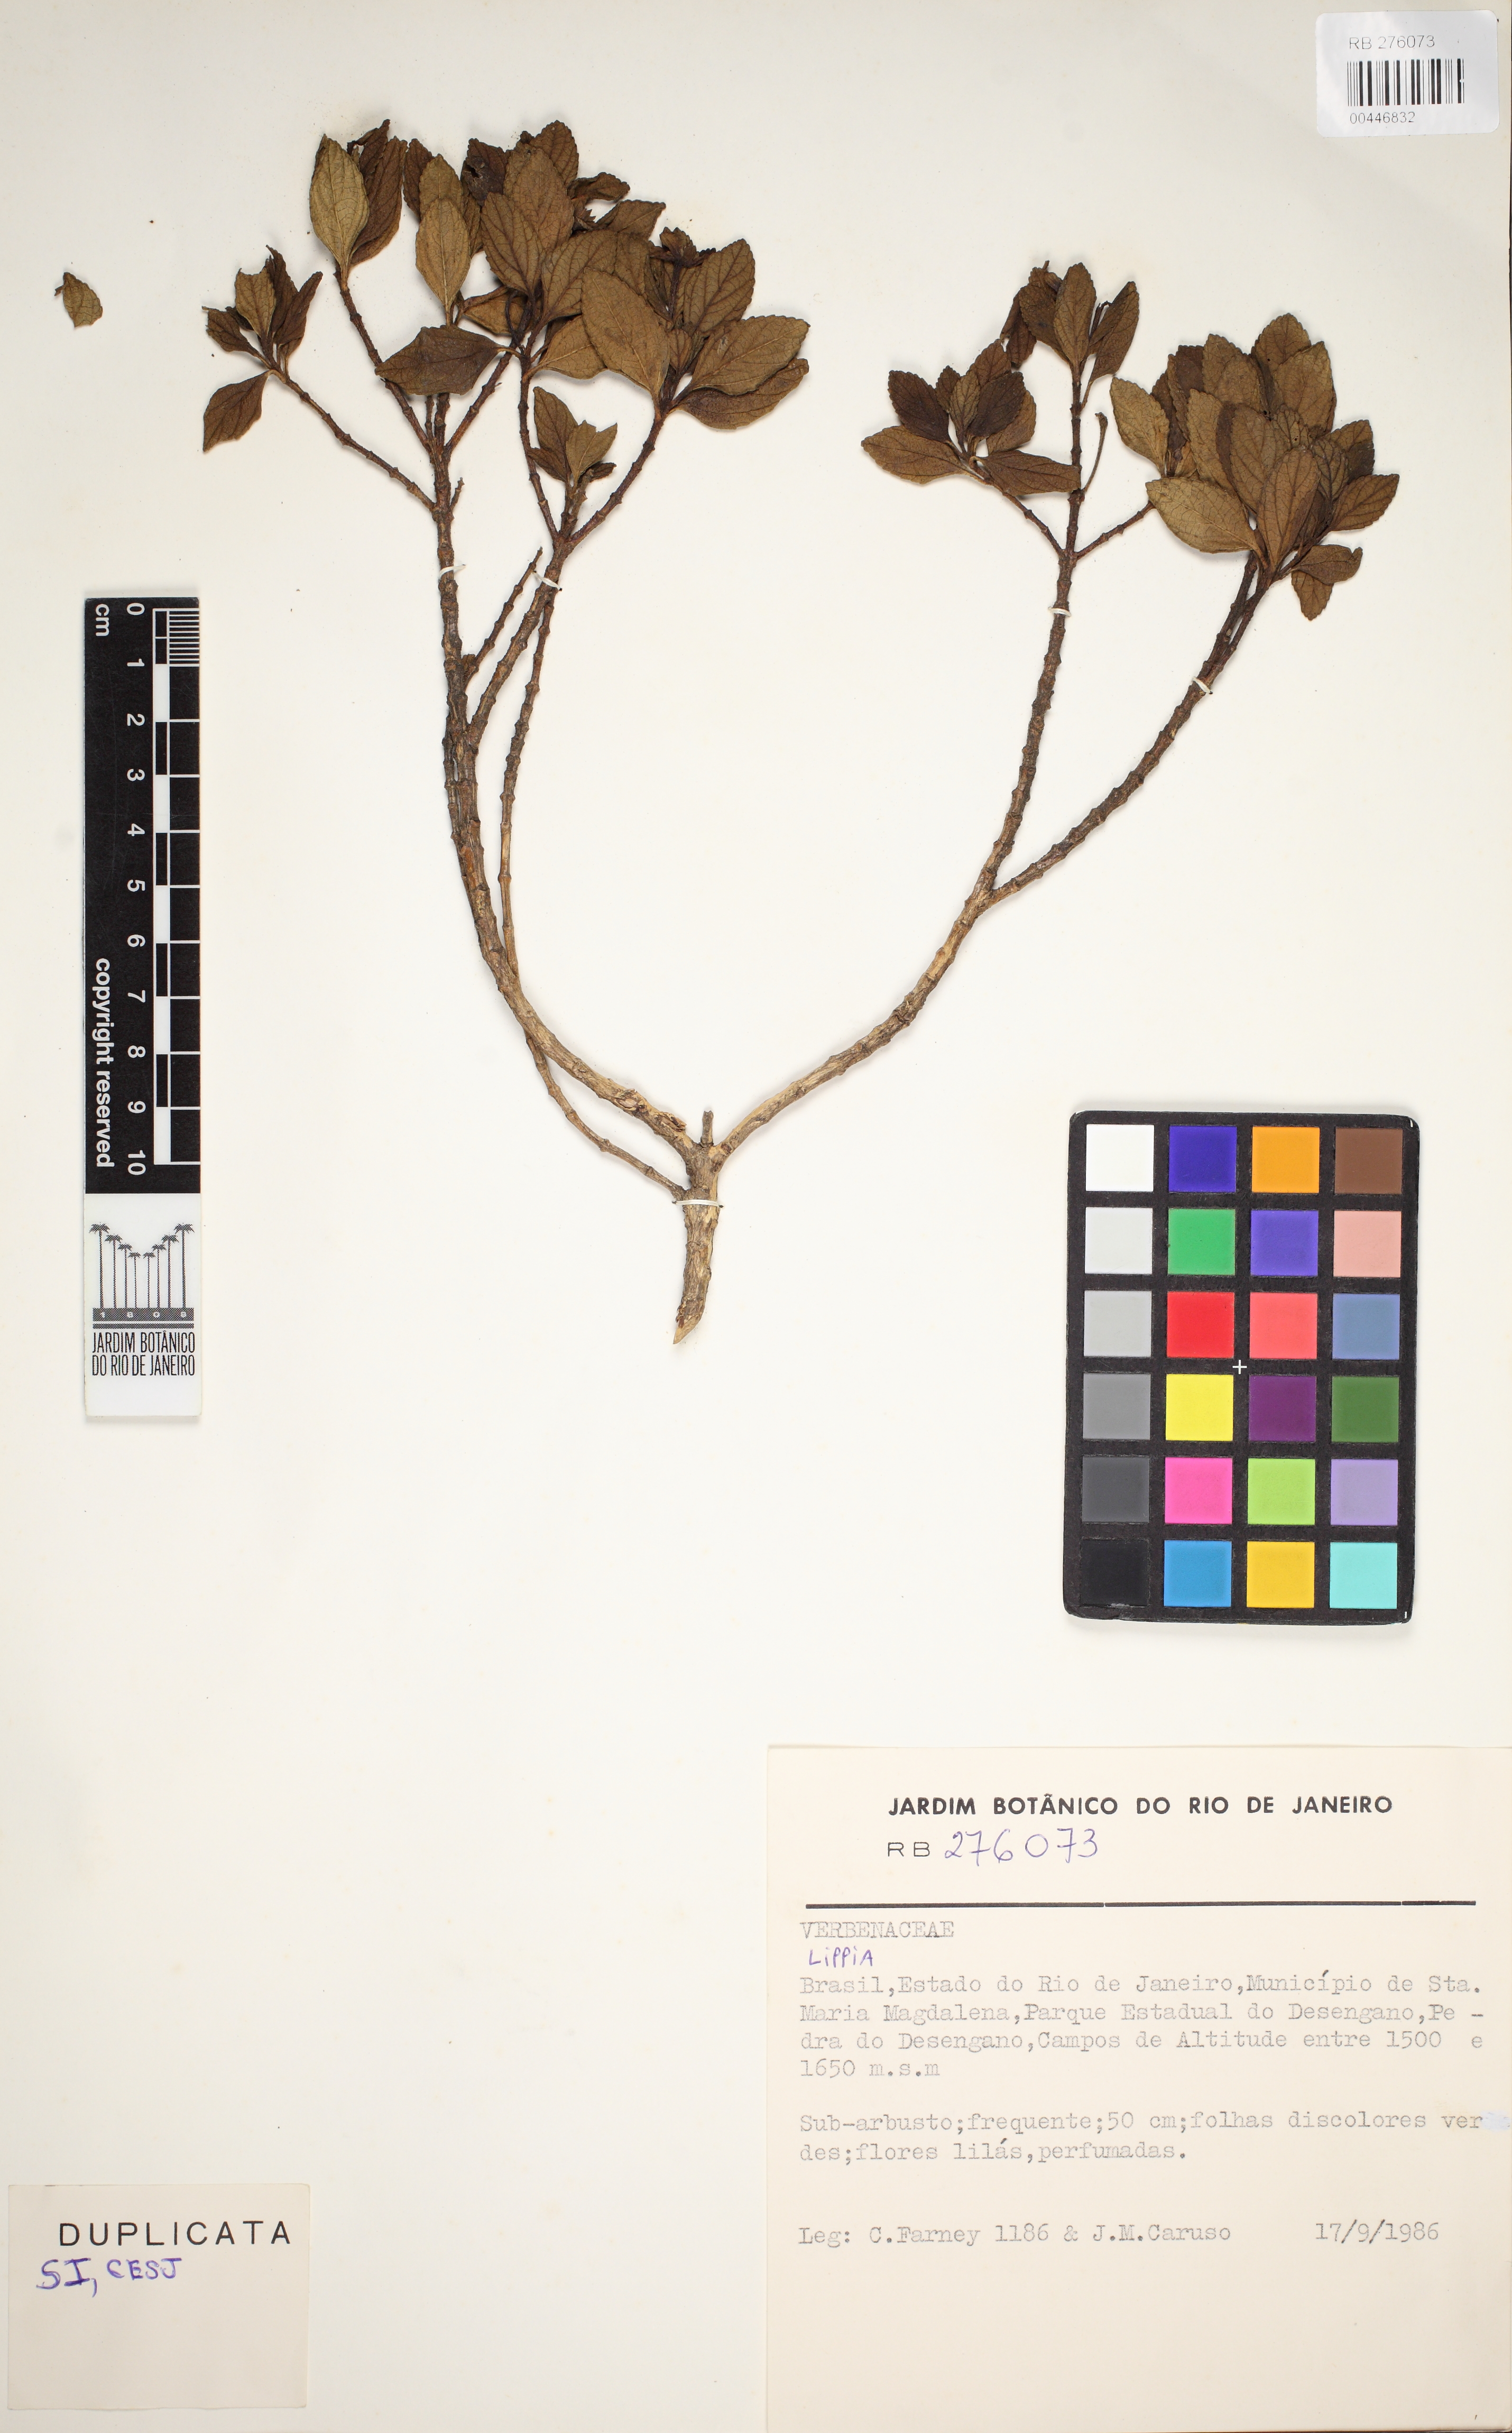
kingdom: Plantae
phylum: Tracheophyta
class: Magnoliopsida
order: Lamiales
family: Verbenaceae
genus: Lippia
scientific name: Lippia
